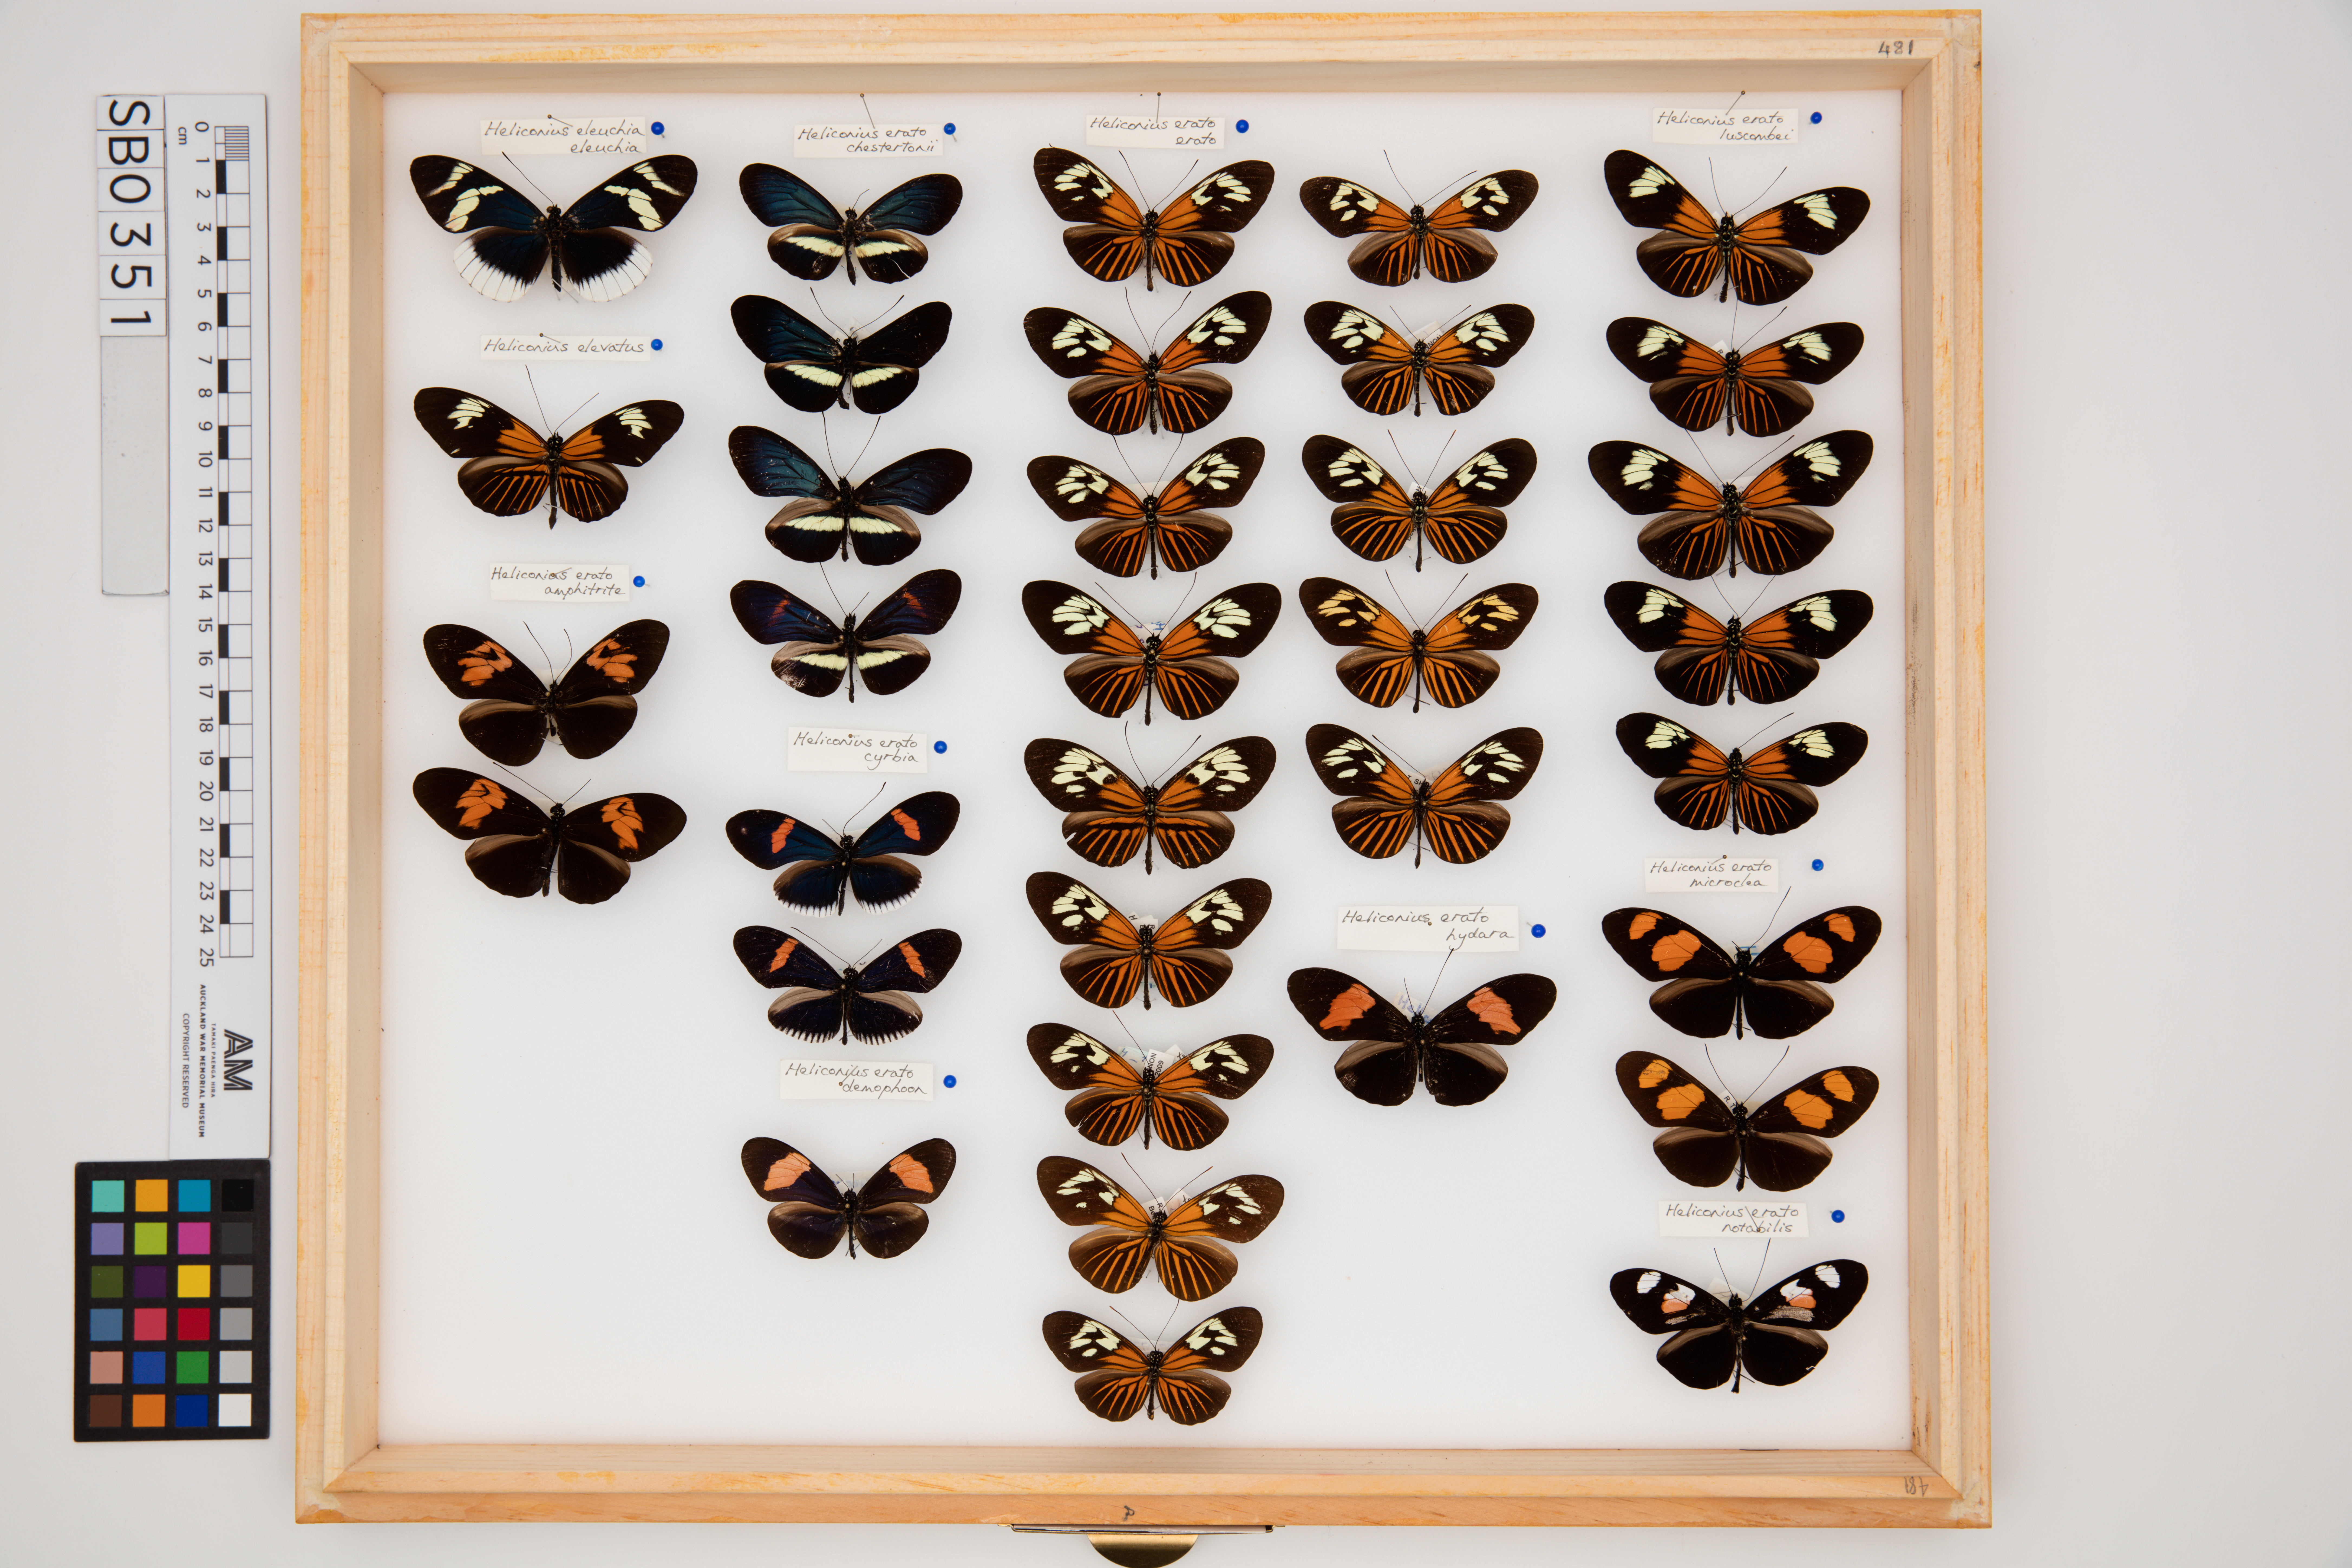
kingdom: Animalia
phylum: Arthropoda
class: Insecta
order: Lepidoptera
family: Nymphalidae
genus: Heliconius
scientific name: Heliconius erato
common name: Common patch longwing
